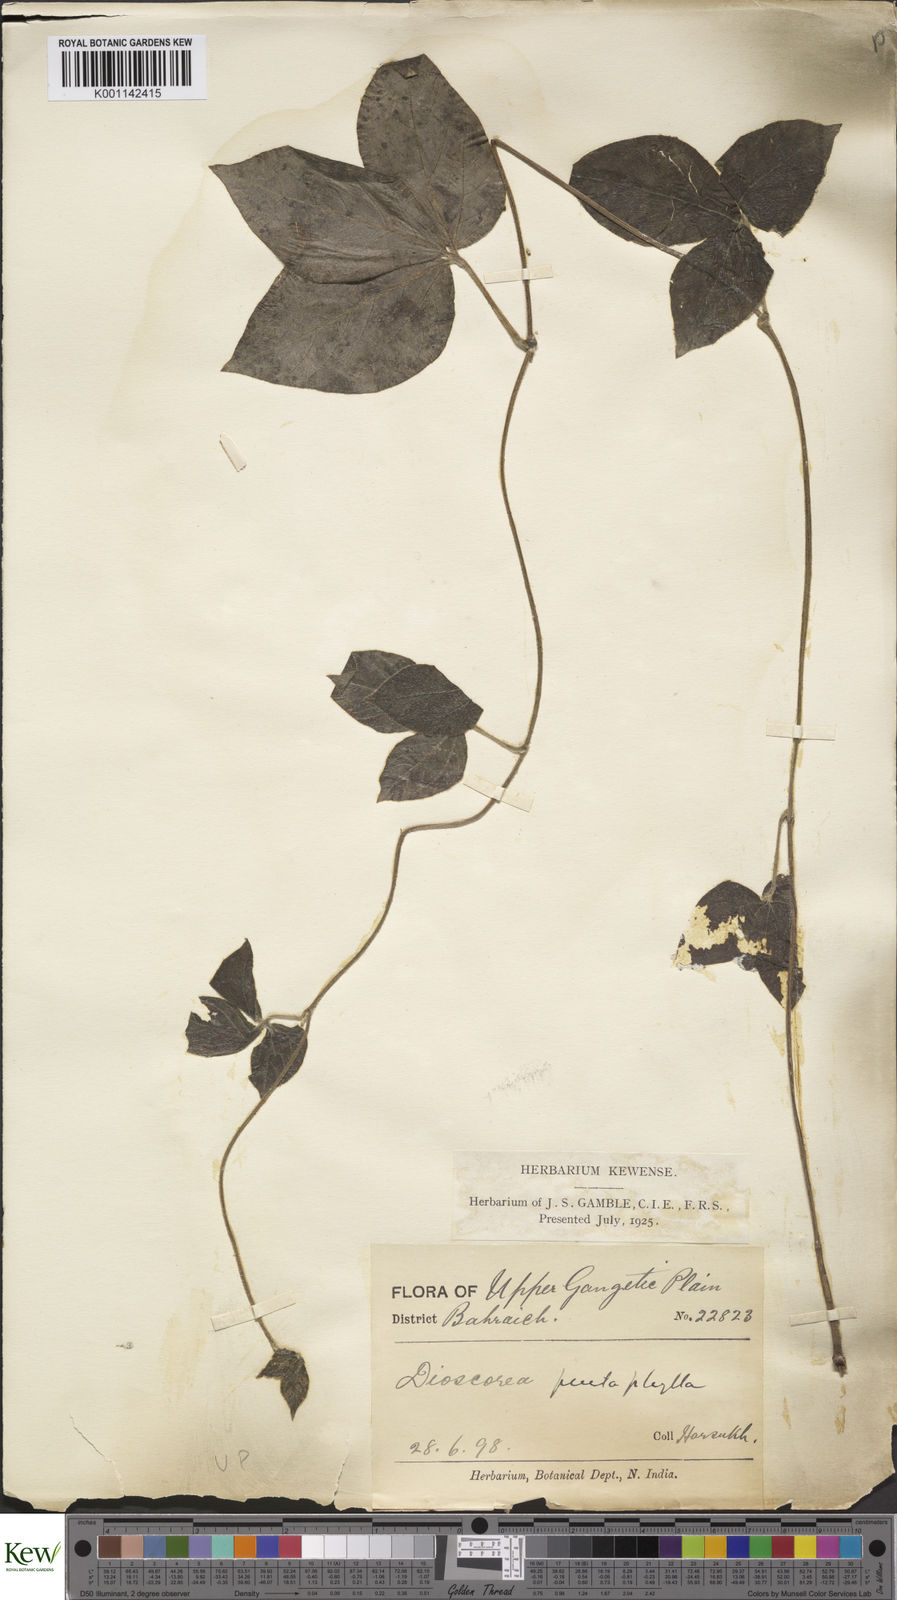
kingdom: Plantae
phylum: Tracheophyta
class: Liliopsida
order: Dioscoreales
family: Dioscoreaceae
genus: Dioscorea
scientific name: Dioscorea pentaphylla
